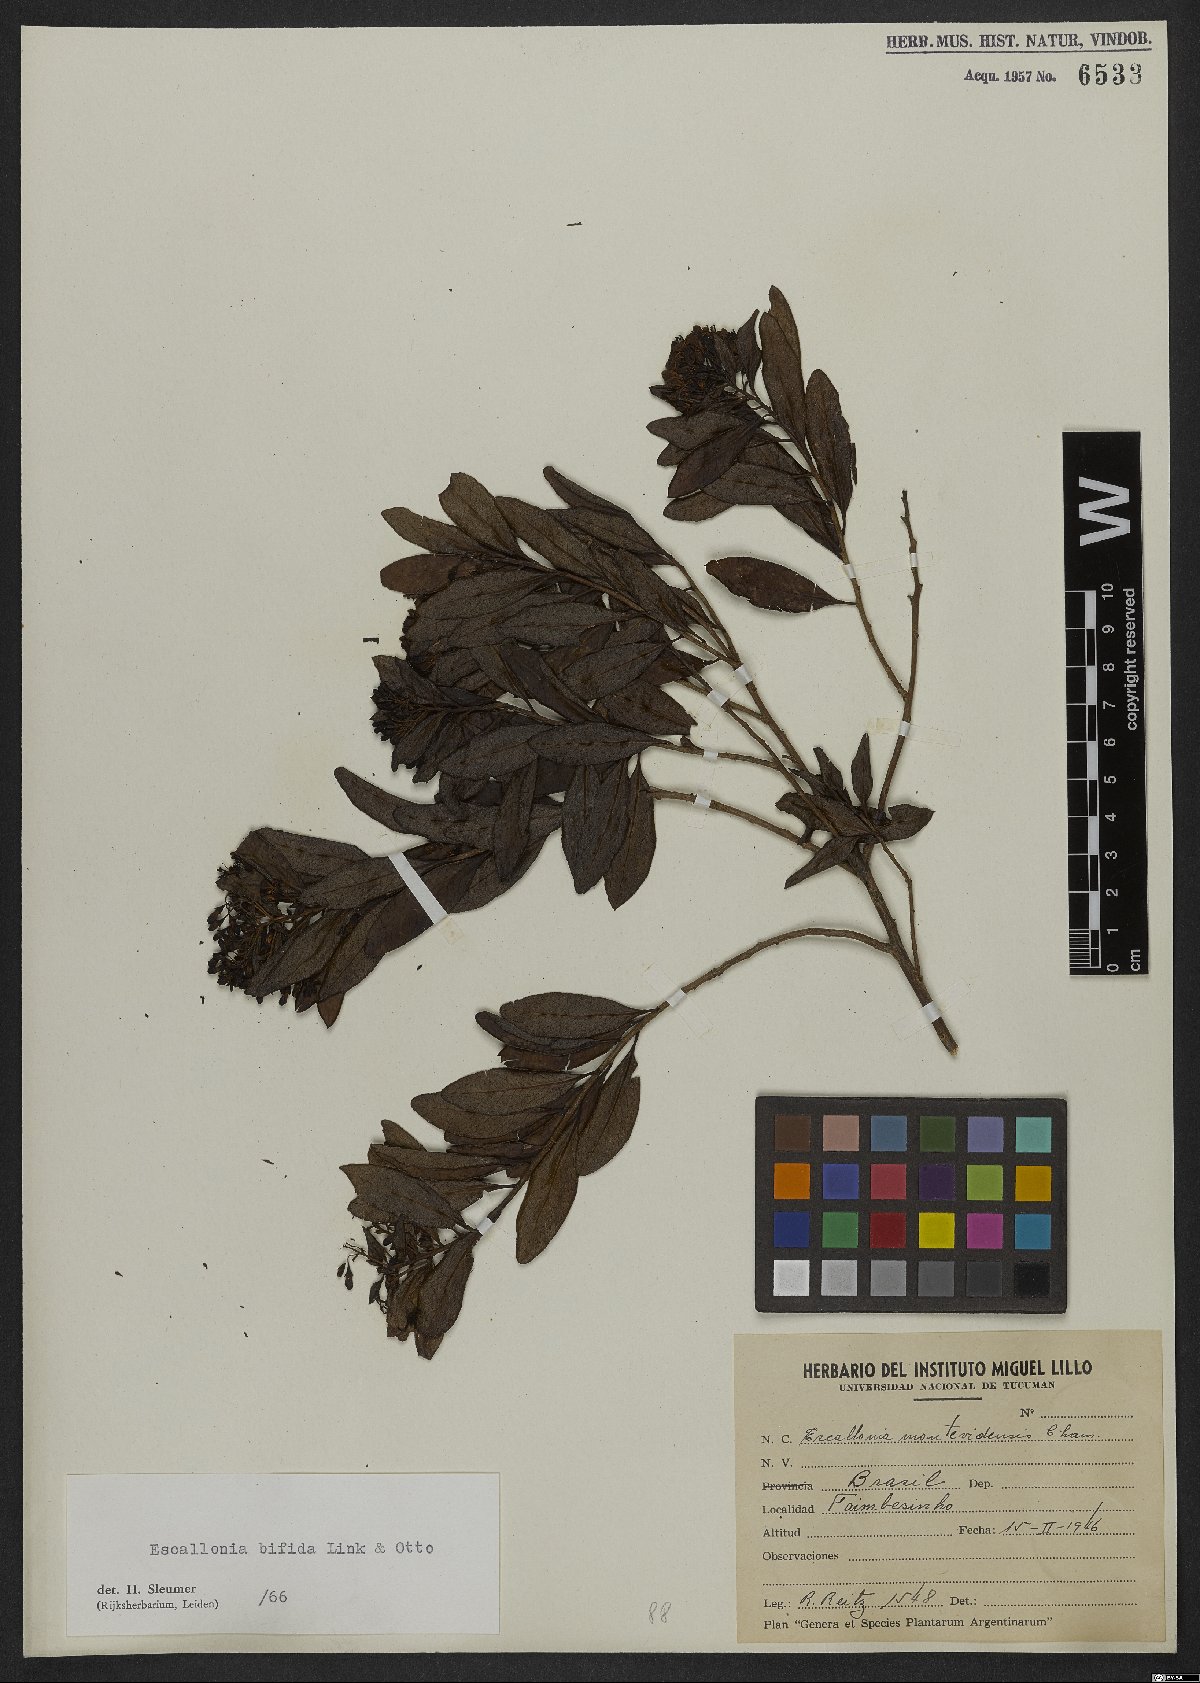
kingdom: Plantae
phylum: Tracheophyta
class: Magnoliopsida
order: Escalloniales
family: Escalloniaceae
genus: Escallonia
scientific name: Escallonia bifida
